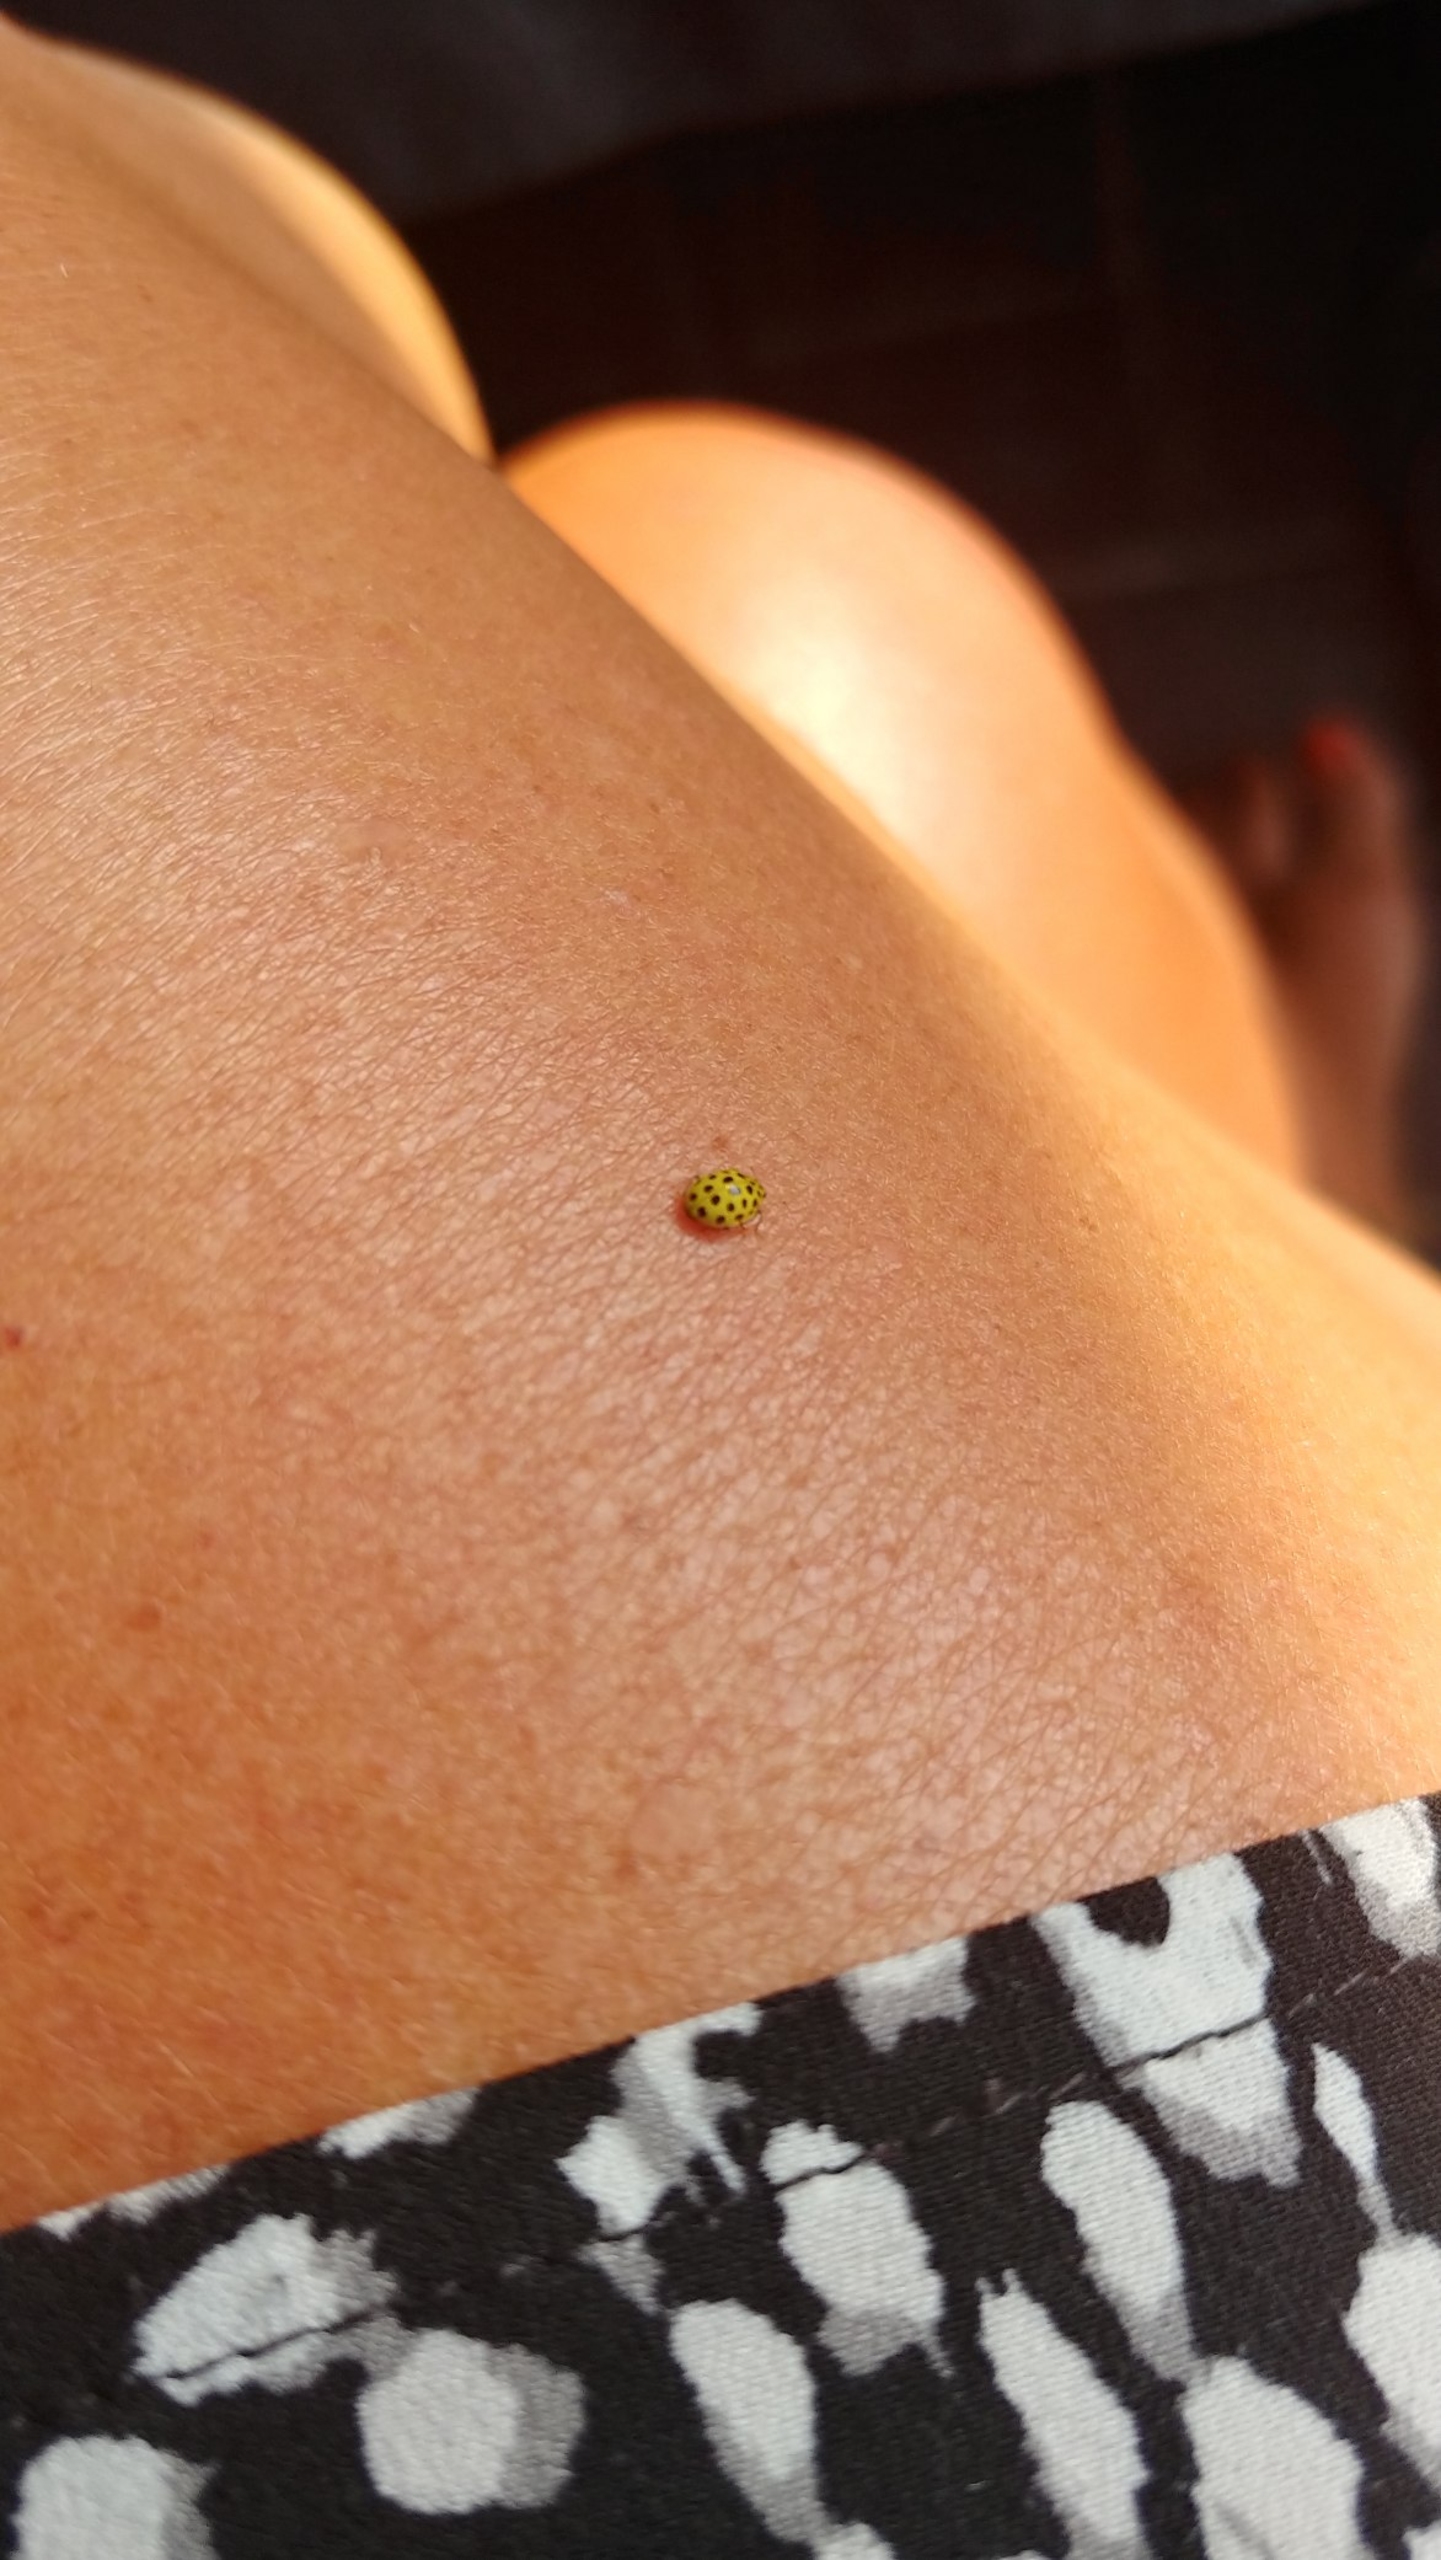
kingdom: Animalia
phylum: Arthropoda
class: Insecta
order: Coleoptera
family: Coccinellidae
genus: Psyllobora
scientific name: Psyllobora vigintiduopunctata
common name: Toogtyveplettet mariehøne
